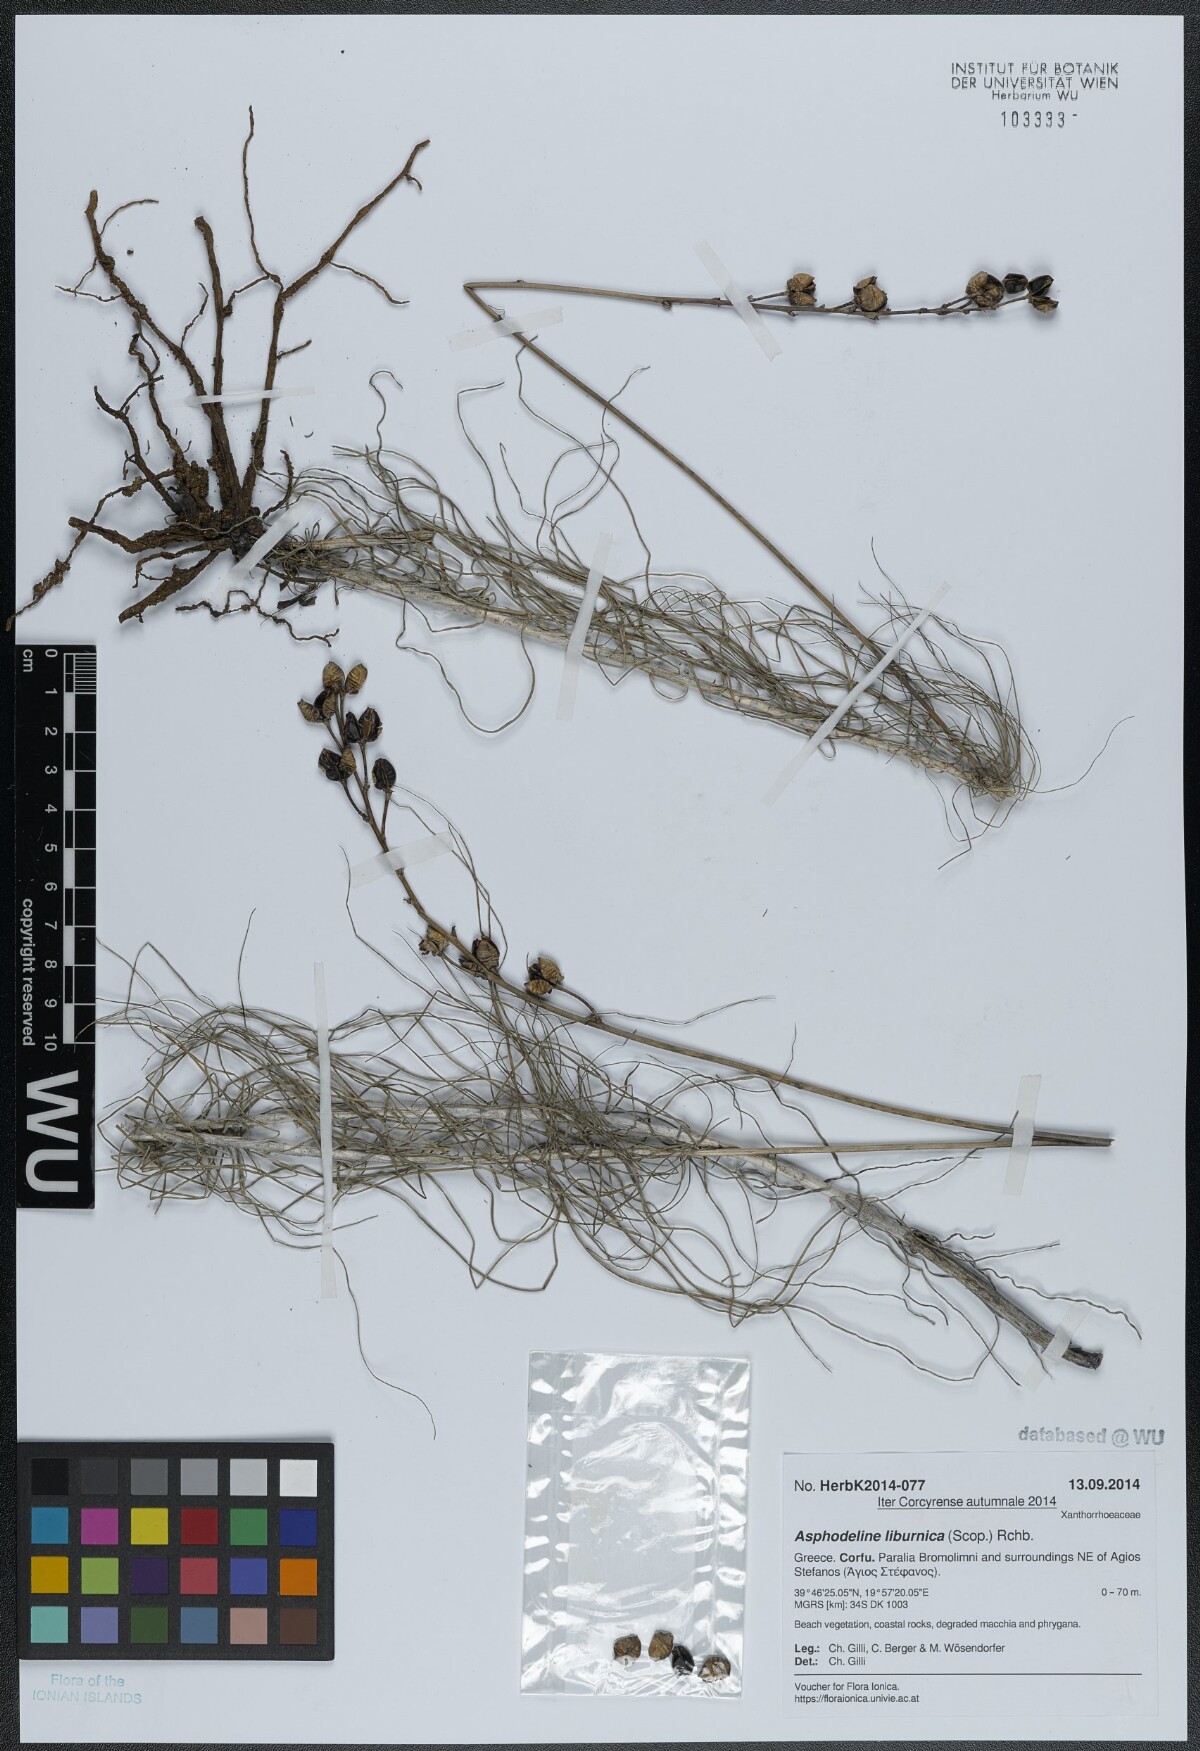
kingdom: Plantae
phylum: Tracheophyta
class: Liliopsida
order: Asparagales
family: Asphodelaceae
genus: Asphodeline
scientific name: Asphodeline liburnica
